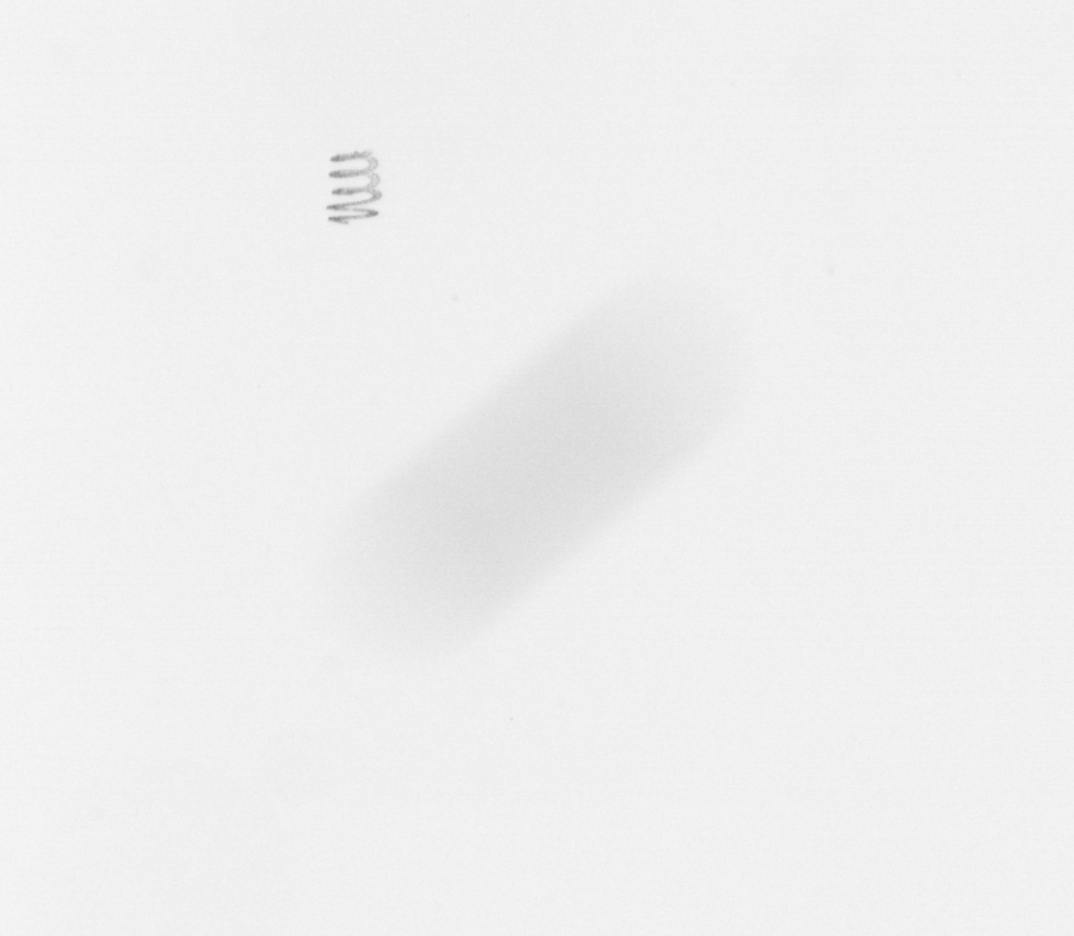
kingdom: Chromista
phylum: Ochrophyta
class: Bacillariophyceae
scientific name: Bacillariophyceae
